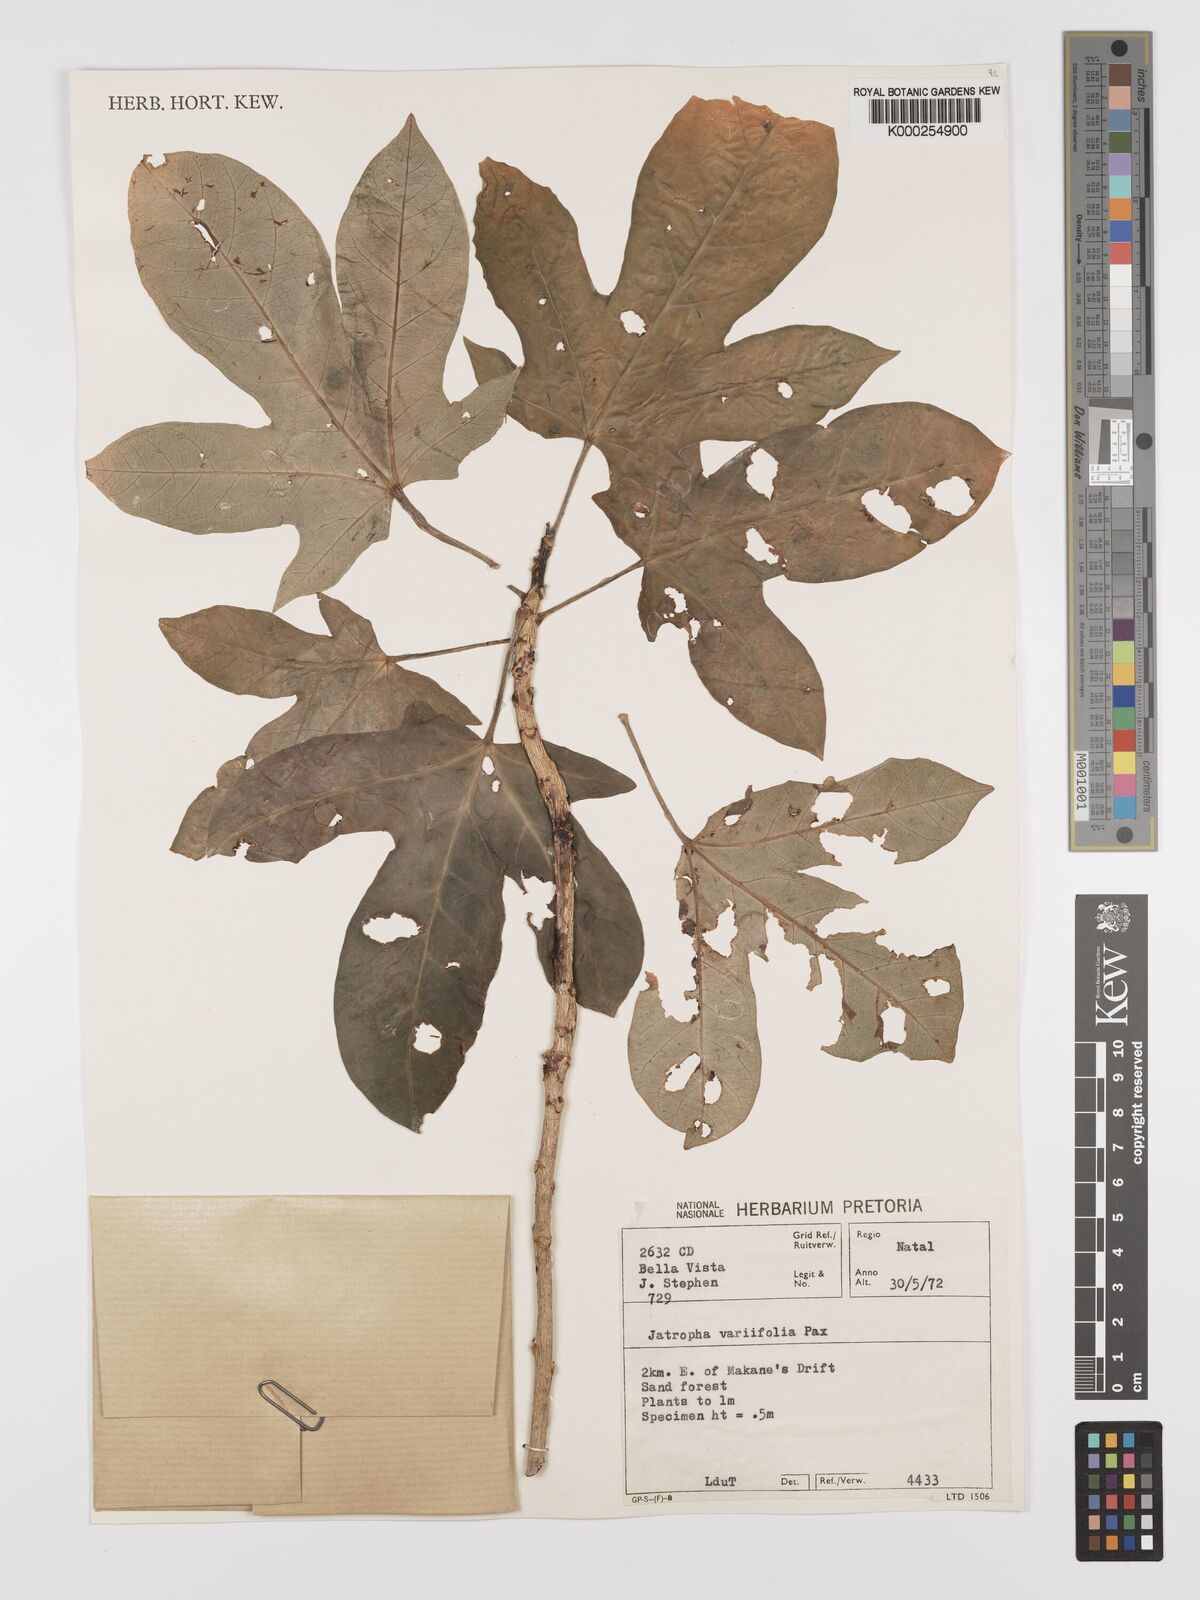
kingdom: Plantae
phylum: Tracheophyta
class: Magnoliopsida
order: Malpighiales
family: Euphorbiaceae
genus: Jatropha
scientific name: Jatropha variifolia
